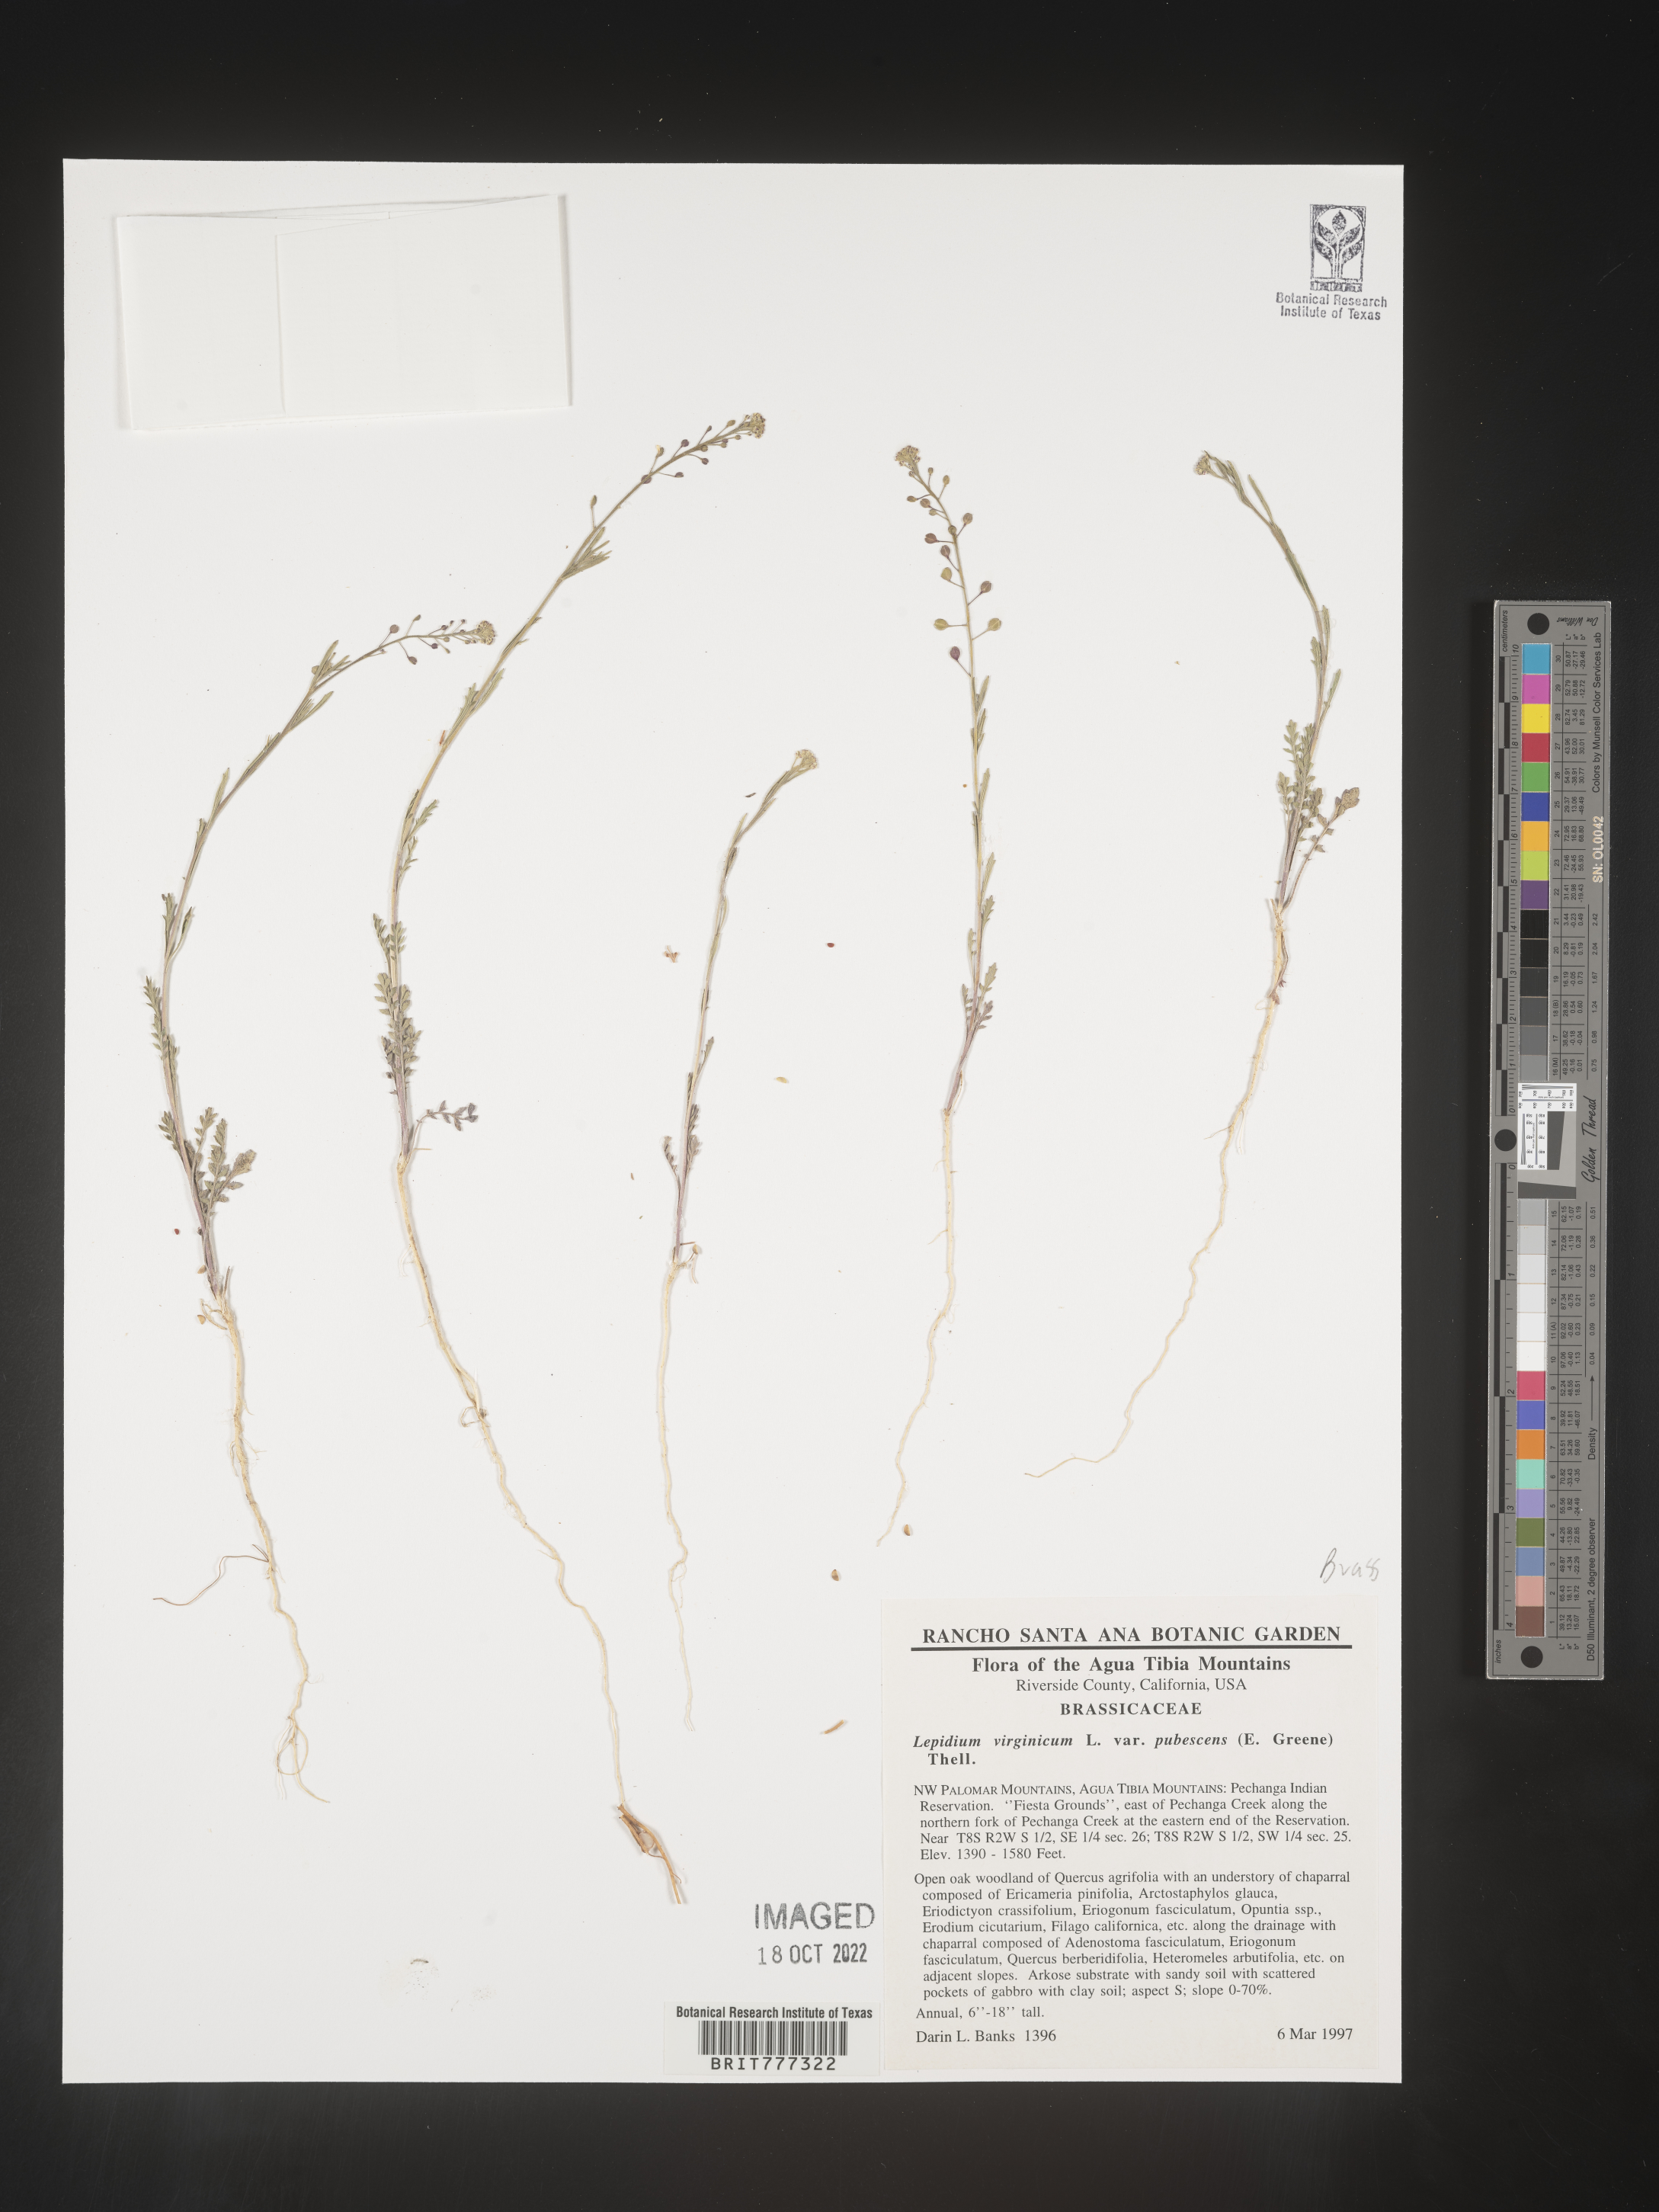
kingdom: Plantae
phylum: Tracheophyta
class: Magnoliopsida
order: Brassicales
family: Brassicaceae
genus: Lepidium
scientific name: Lepidium virginicum
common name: Least pepperwort
